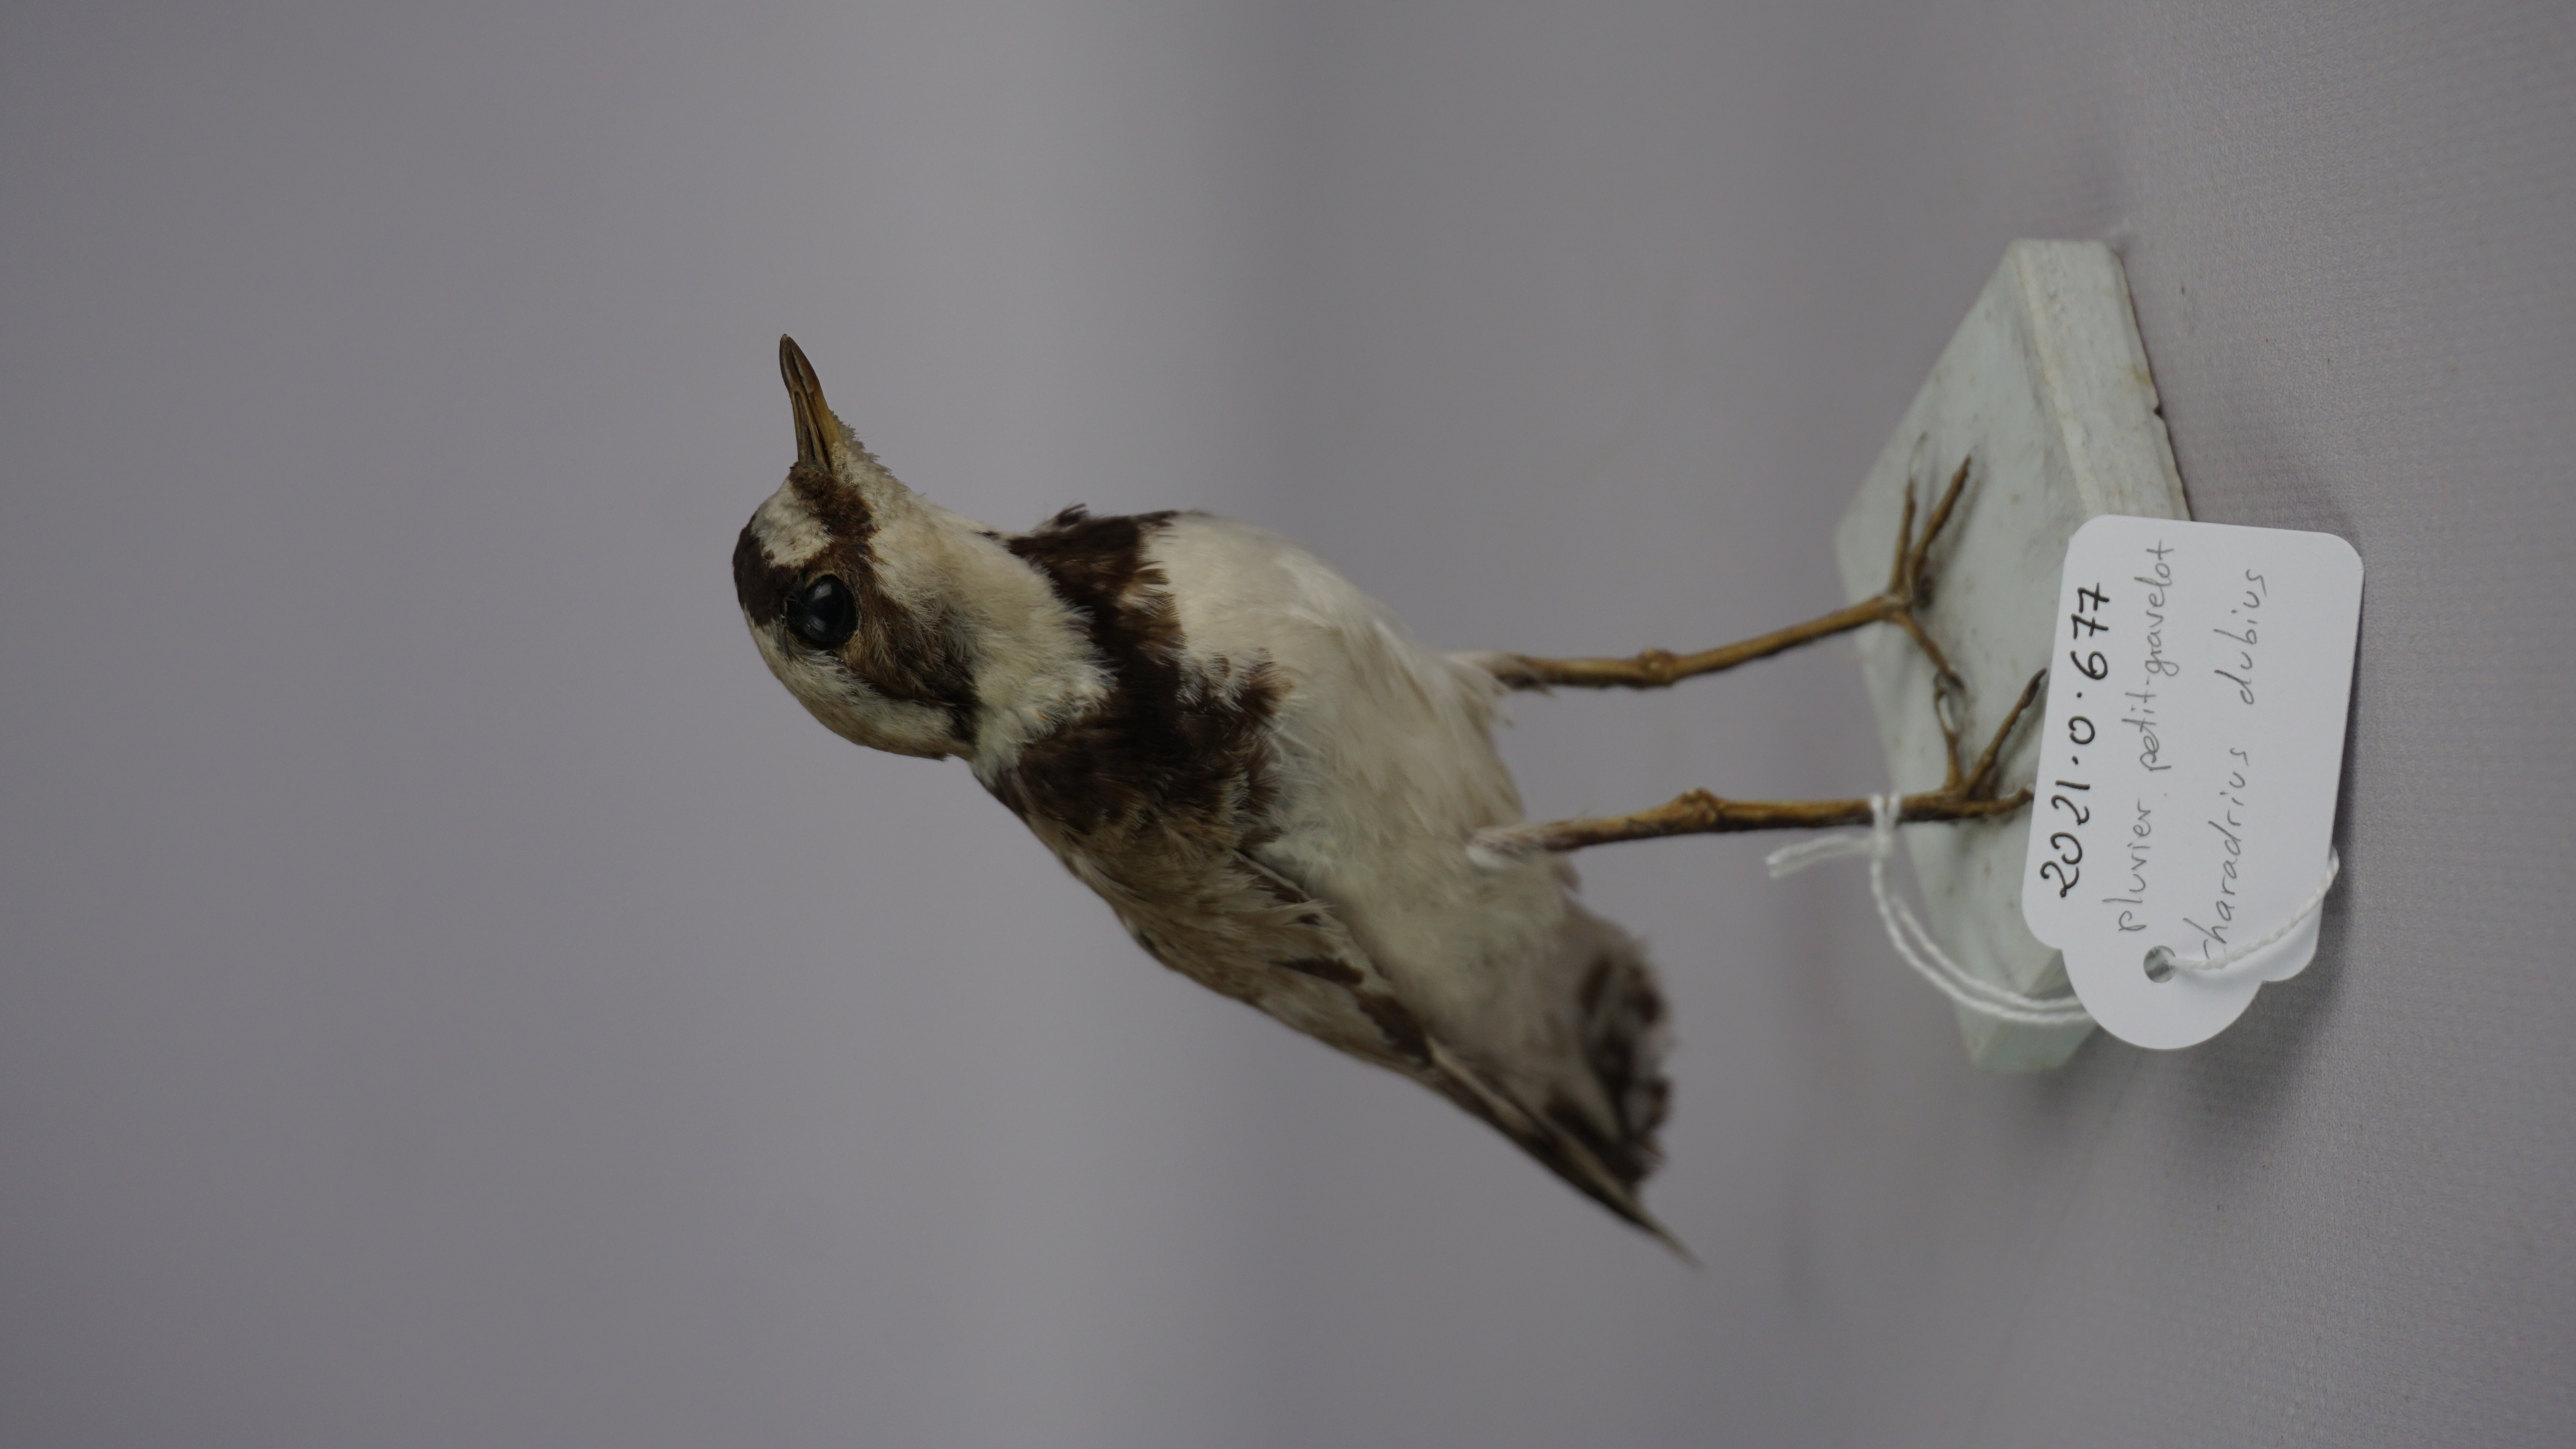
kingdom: Animalia
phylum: Chordata
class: Aves
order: Charadriiformes
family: Charadriidae
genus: Charadrius
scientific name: Charadrius dubius
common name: Little ringed plover
